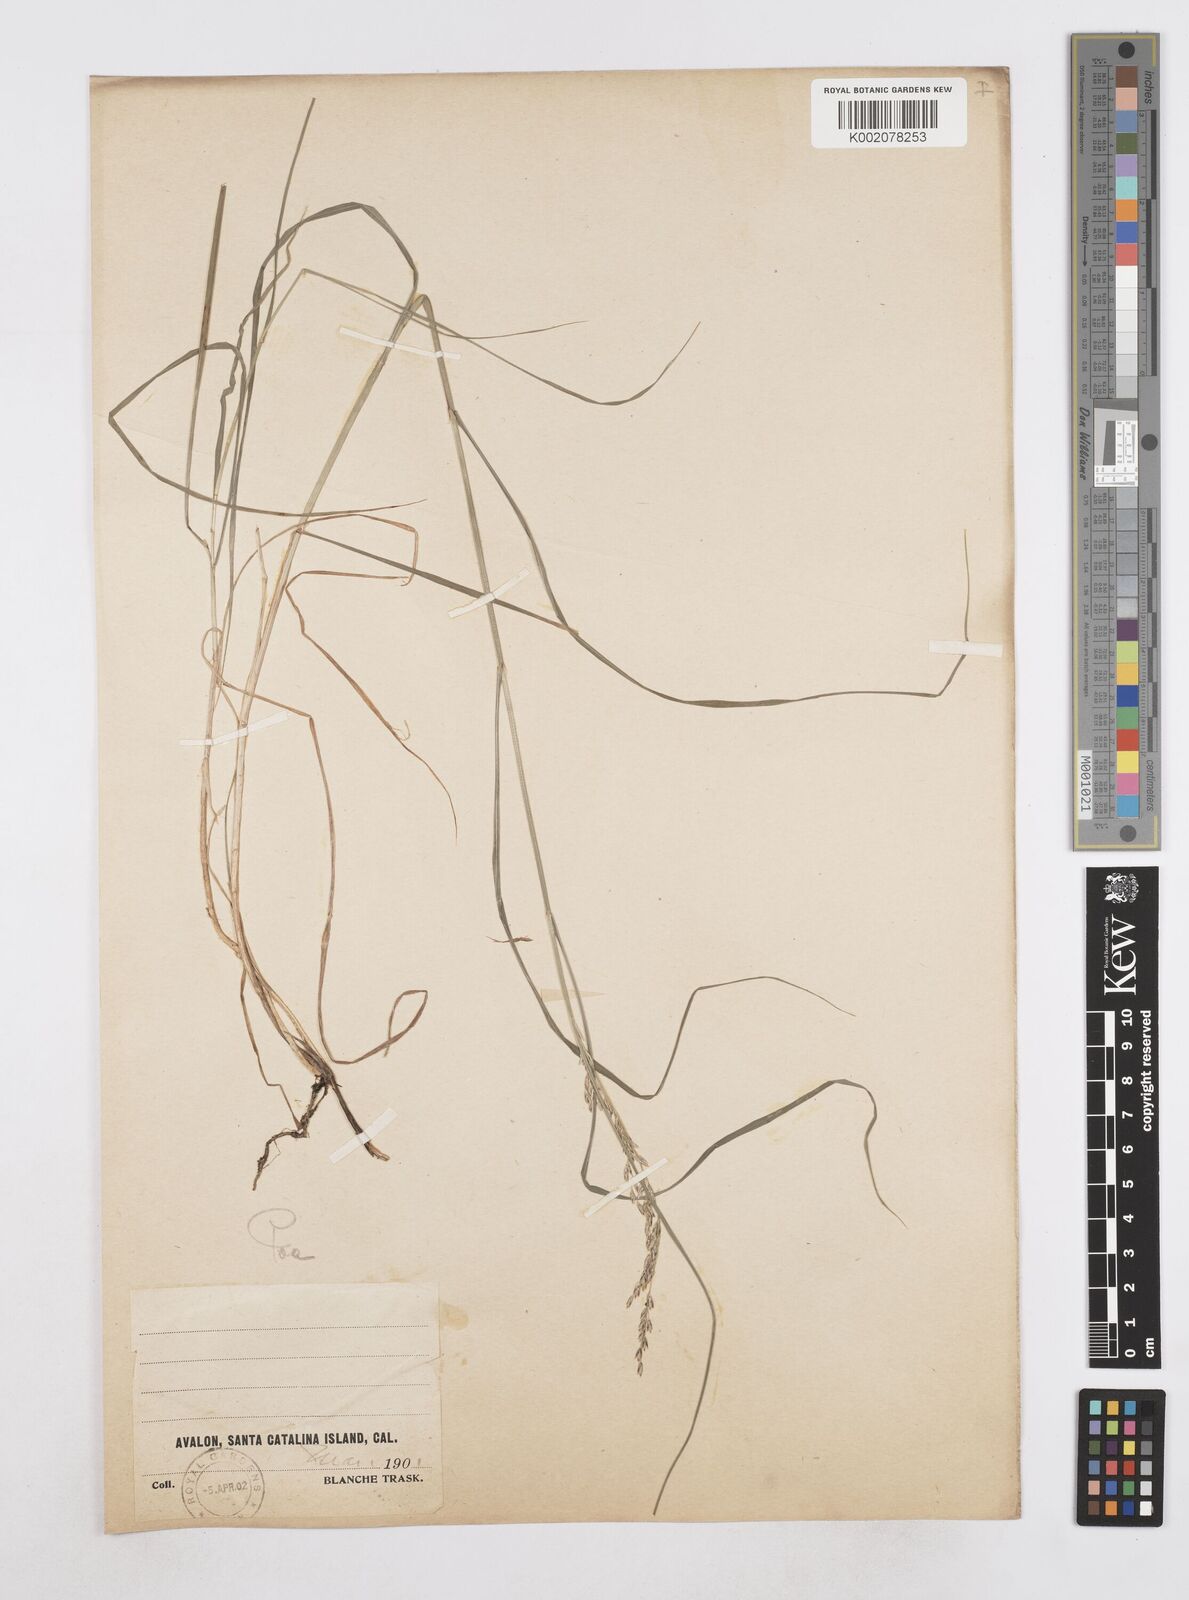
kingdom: Plantae
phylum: Tracheophyta
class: Liliopsida
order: Poales
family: Poaceae
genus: Poa
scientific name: Poa
